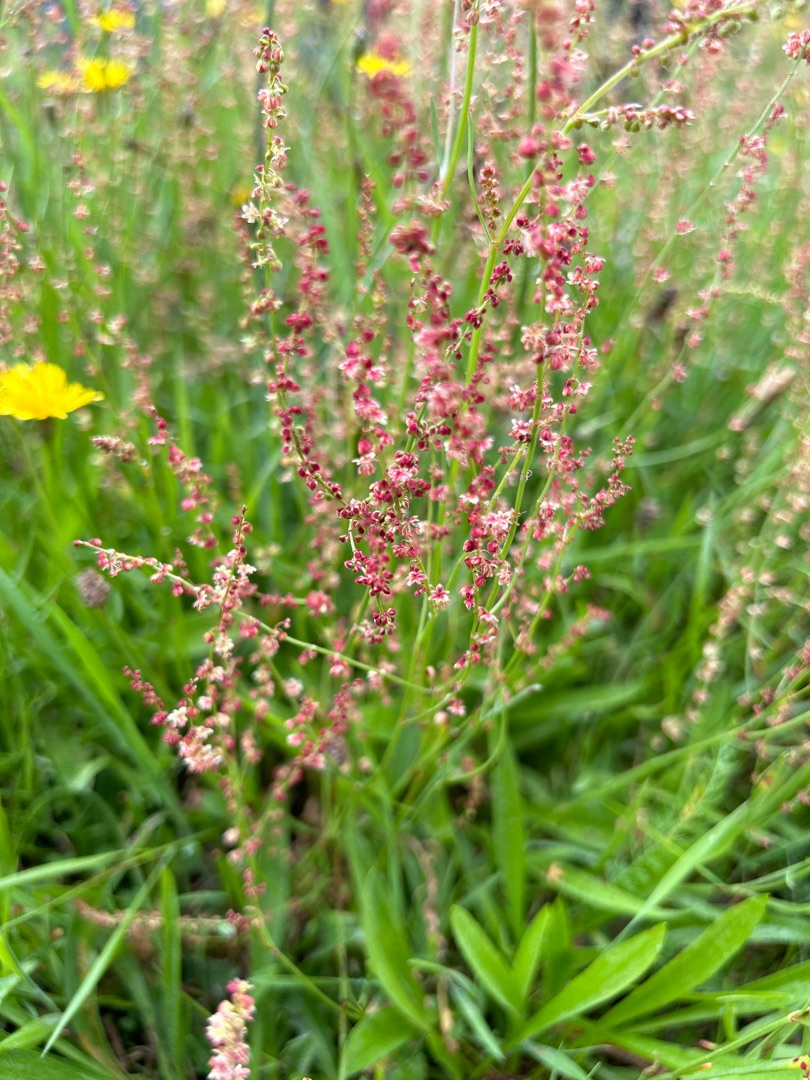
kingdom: Plantae
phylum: Tracheophyta
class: Magnoliopsida
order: Caryophyllales
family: Polygonaceae
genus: Rumex
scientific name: Rumex acetosella
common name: Rødknæ
